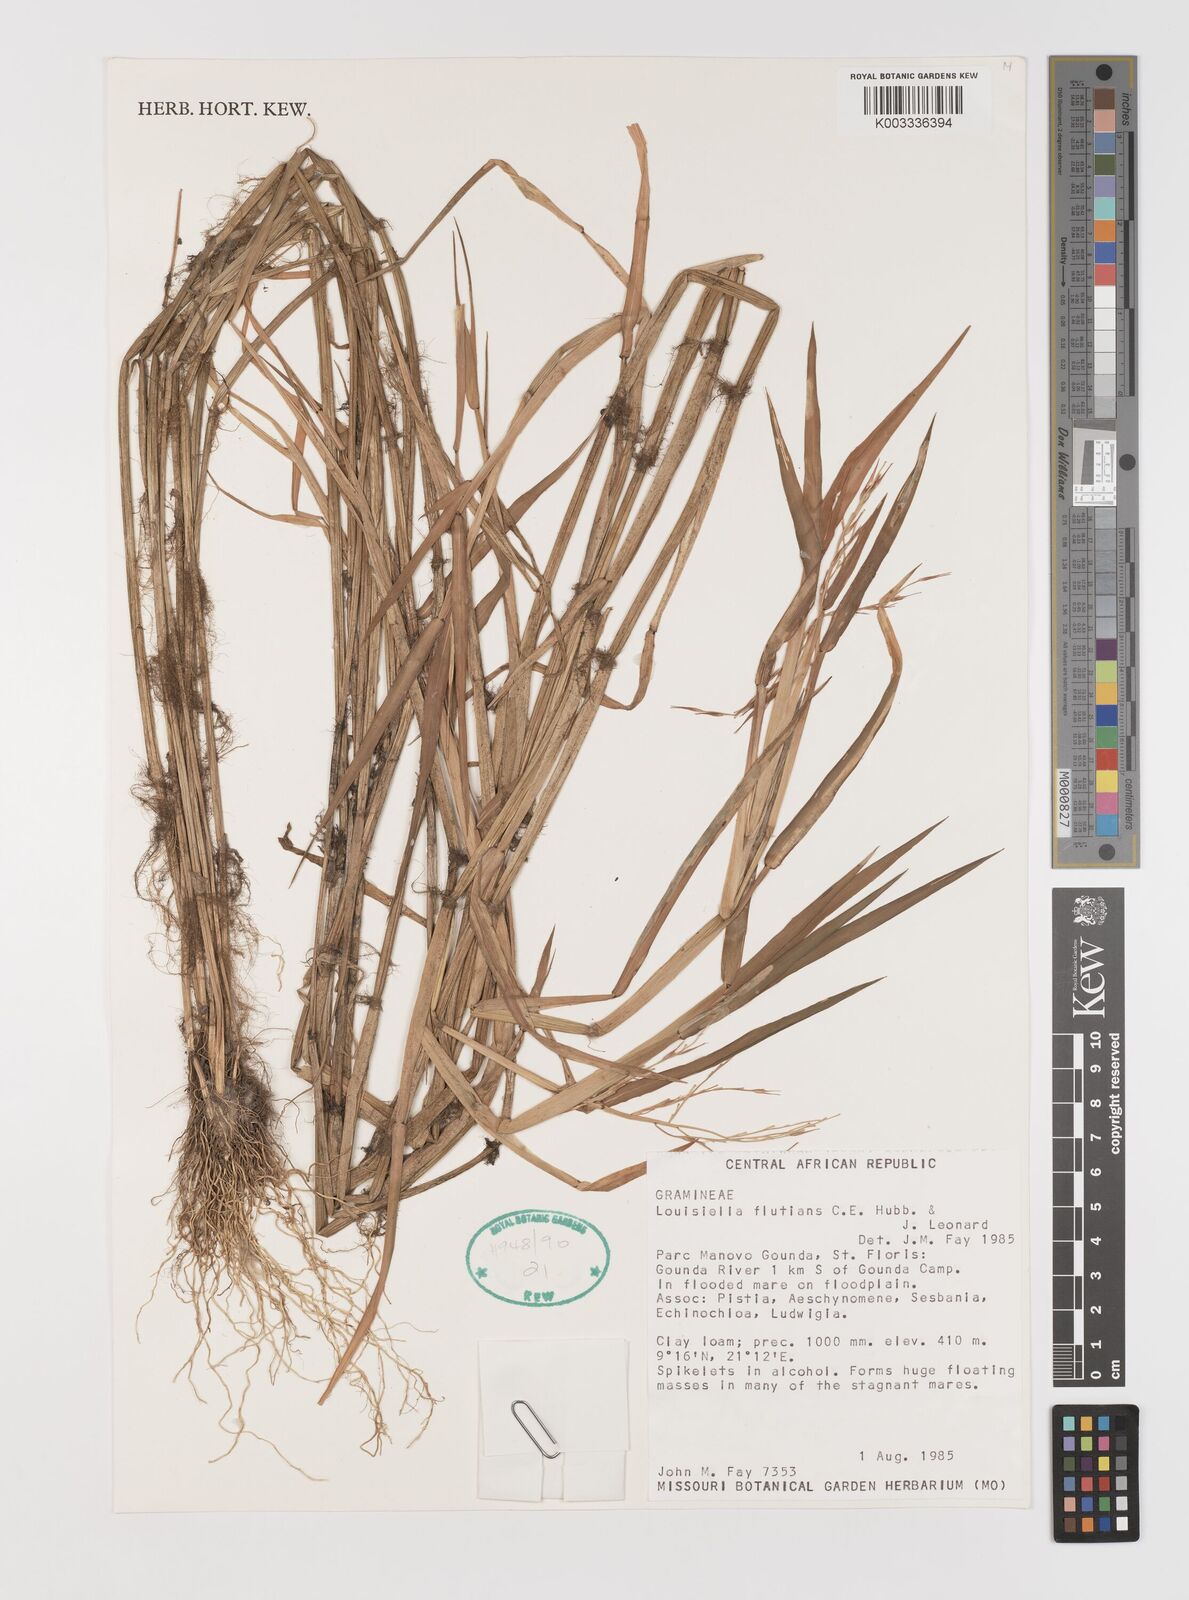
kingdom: Plantae
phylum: Tracheophyta
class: Liliopsida
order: Poales
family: Poaceae
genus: Louisiella
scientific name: Louisiella fluitans
